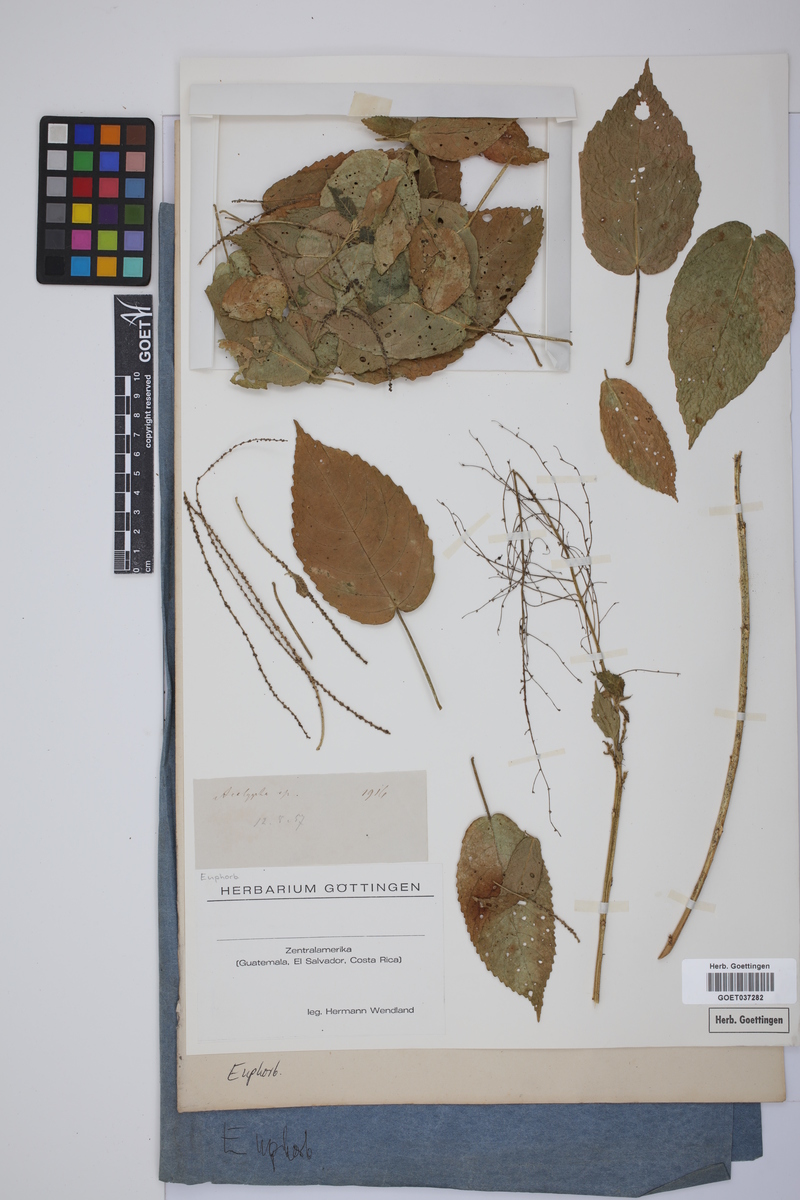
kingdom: Plantae
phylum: Tracheophyta
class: Magnoliopsida
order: Malpighiales
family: Euphorbiaceae
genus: Acalypha
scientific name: Acalypha
